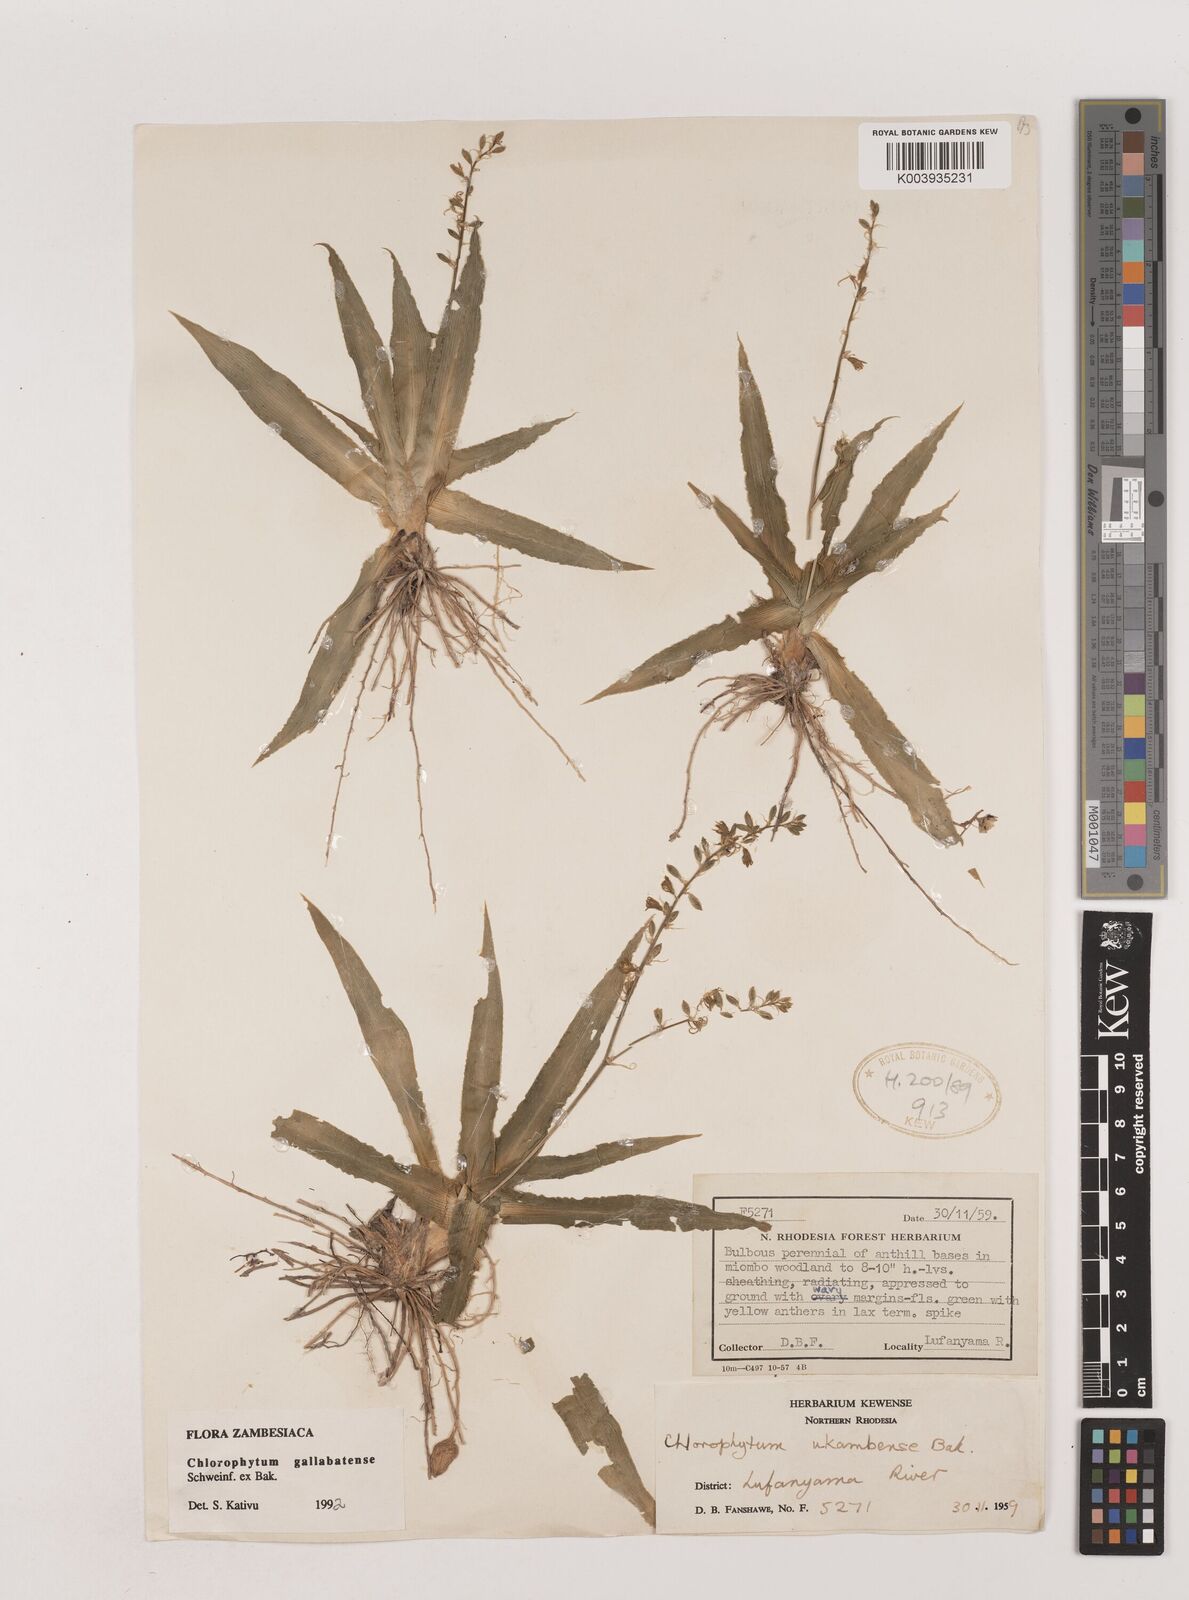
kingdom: Plantae
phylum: Tracheophyta
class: Liliopsida
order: Asparagales
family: Asparagaceae
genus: Chlorophytum
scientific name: Chlorophytum gallabatense
